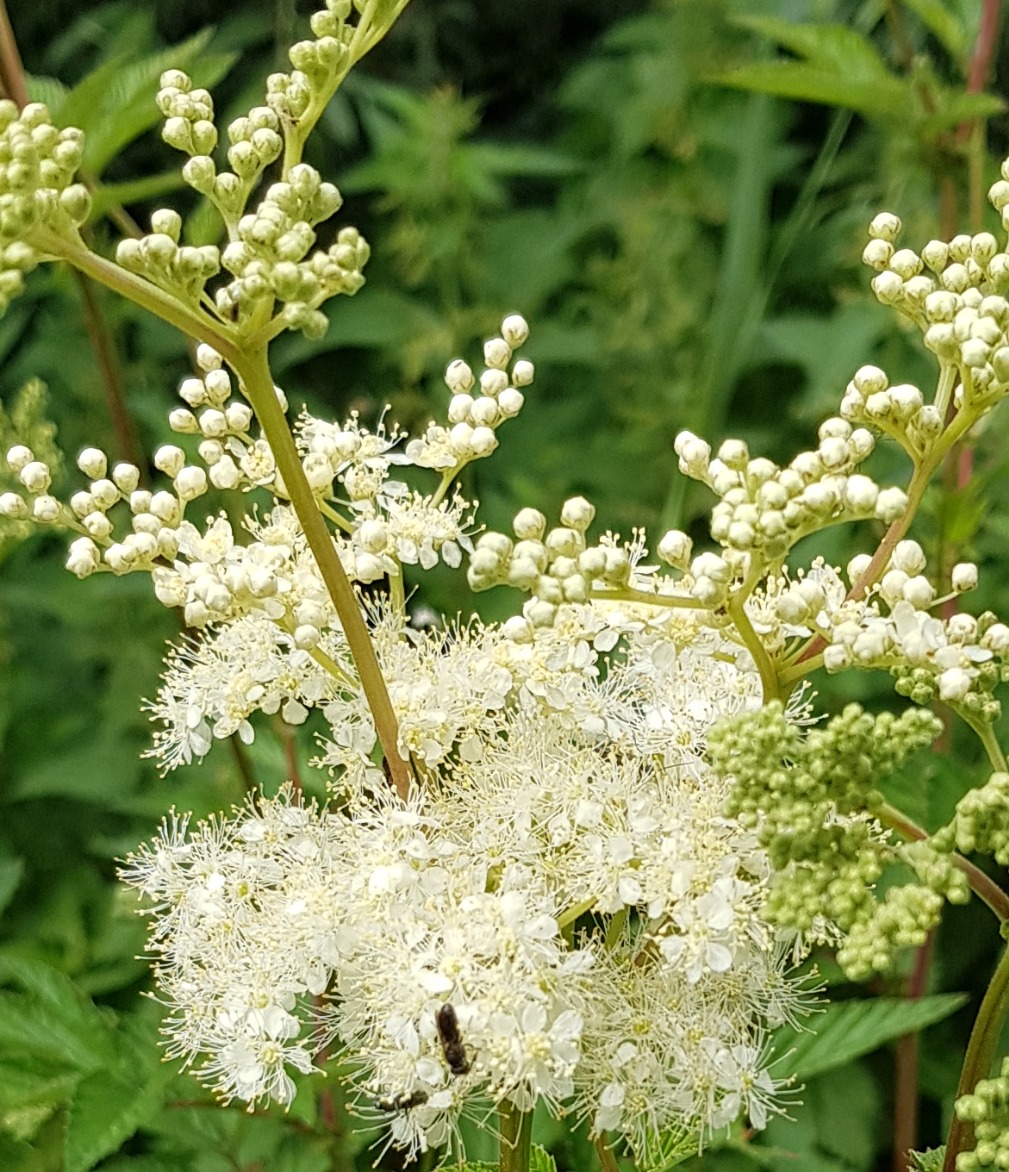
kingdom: Plantae
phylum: Tracheophyta
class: Magnoliopsida
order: Rosales
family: Rosaceae
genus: Filipendula
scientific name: Filipendula ulmaria
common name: Almindelig mjødurt
